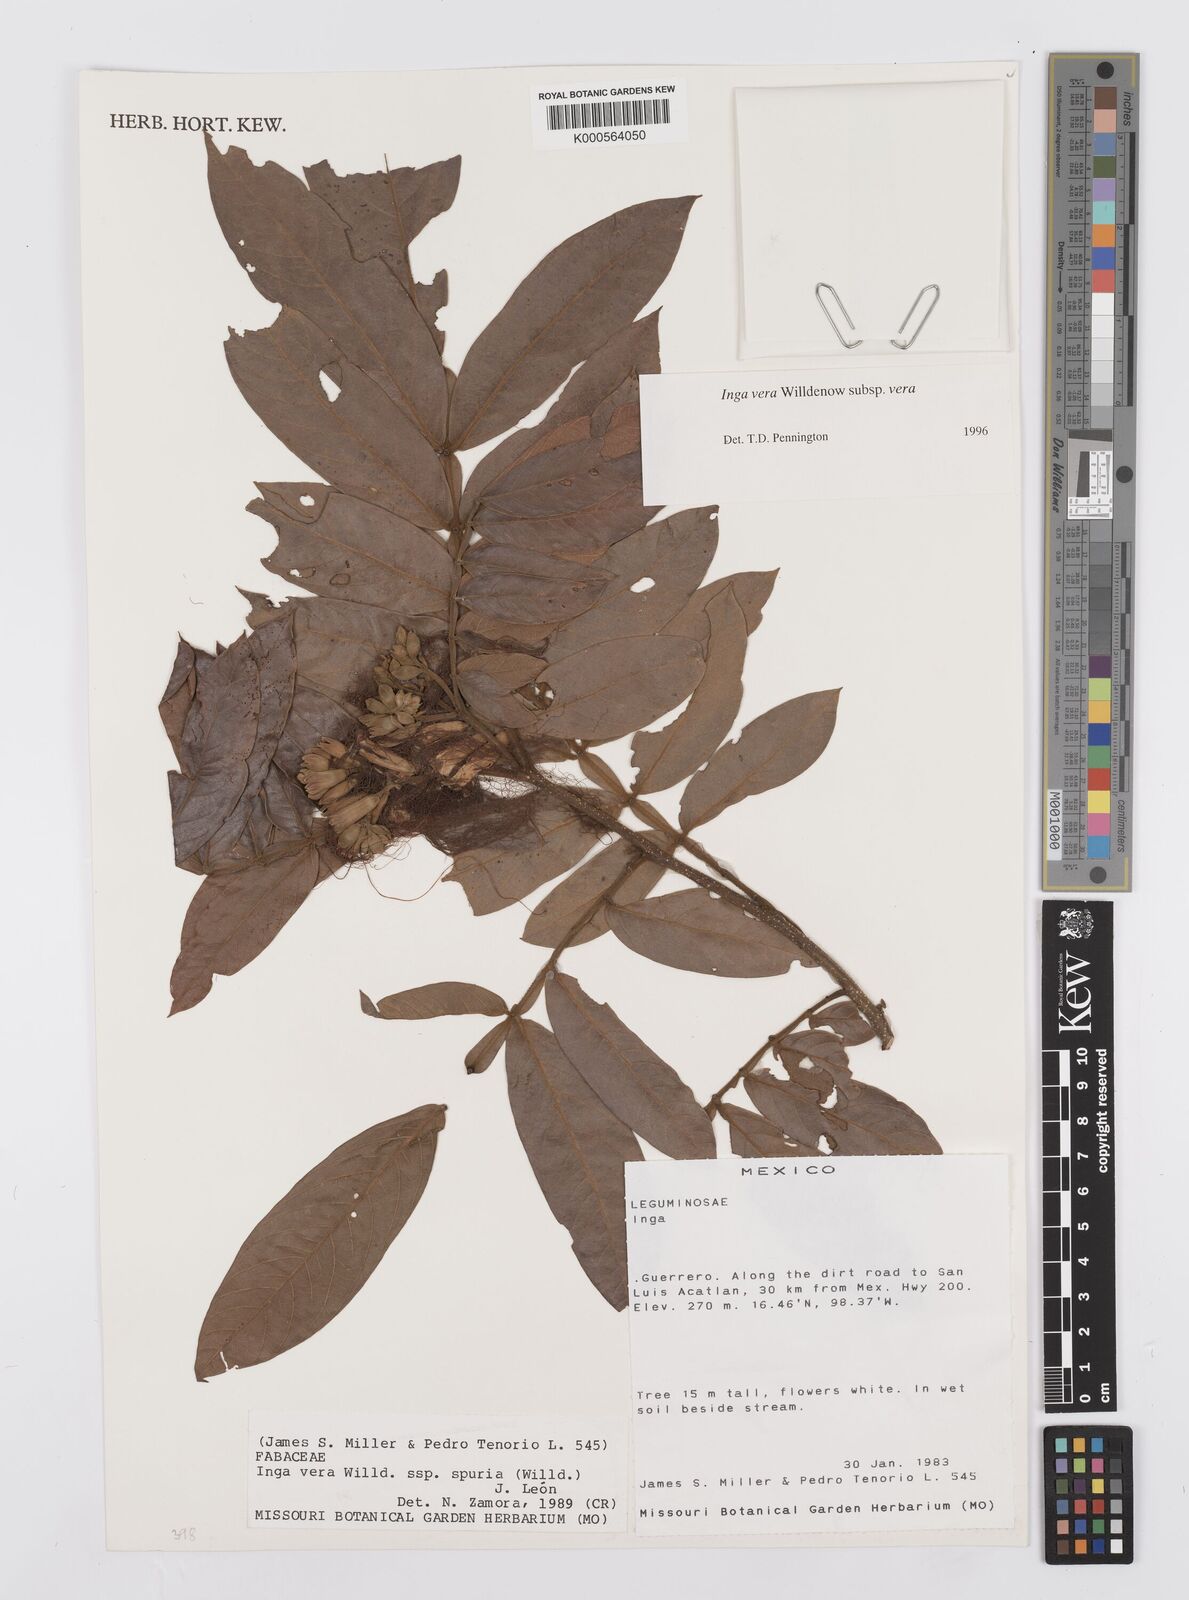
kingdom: Plantae
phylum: Tracheophyta
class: Magnoliopsida
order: Fabales
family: Fabaceae
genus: Inga
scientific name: Inga vera
